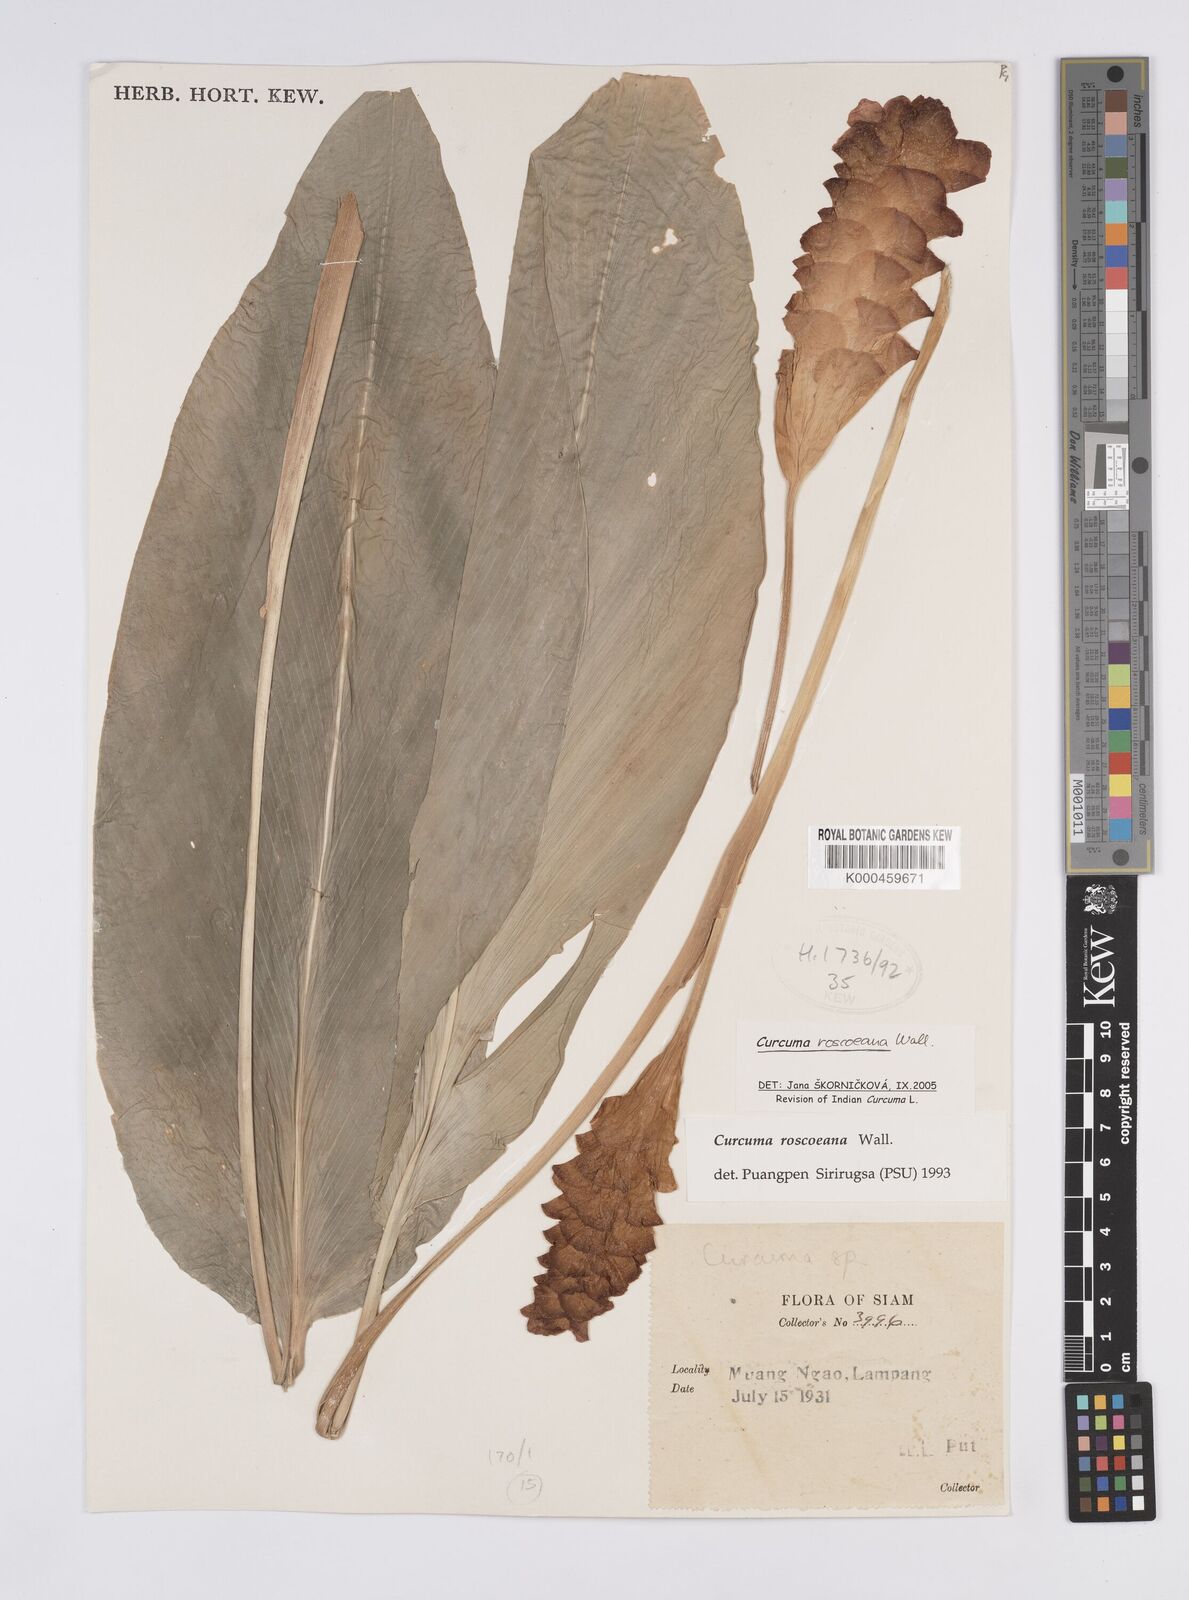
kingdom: Plantae
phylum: Tracheophyta
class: Liliopsida
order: Zingiberales
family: Zingiberaceae
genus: Curcuma
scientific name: Curcuma roscoeana
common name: Jewel of burma
